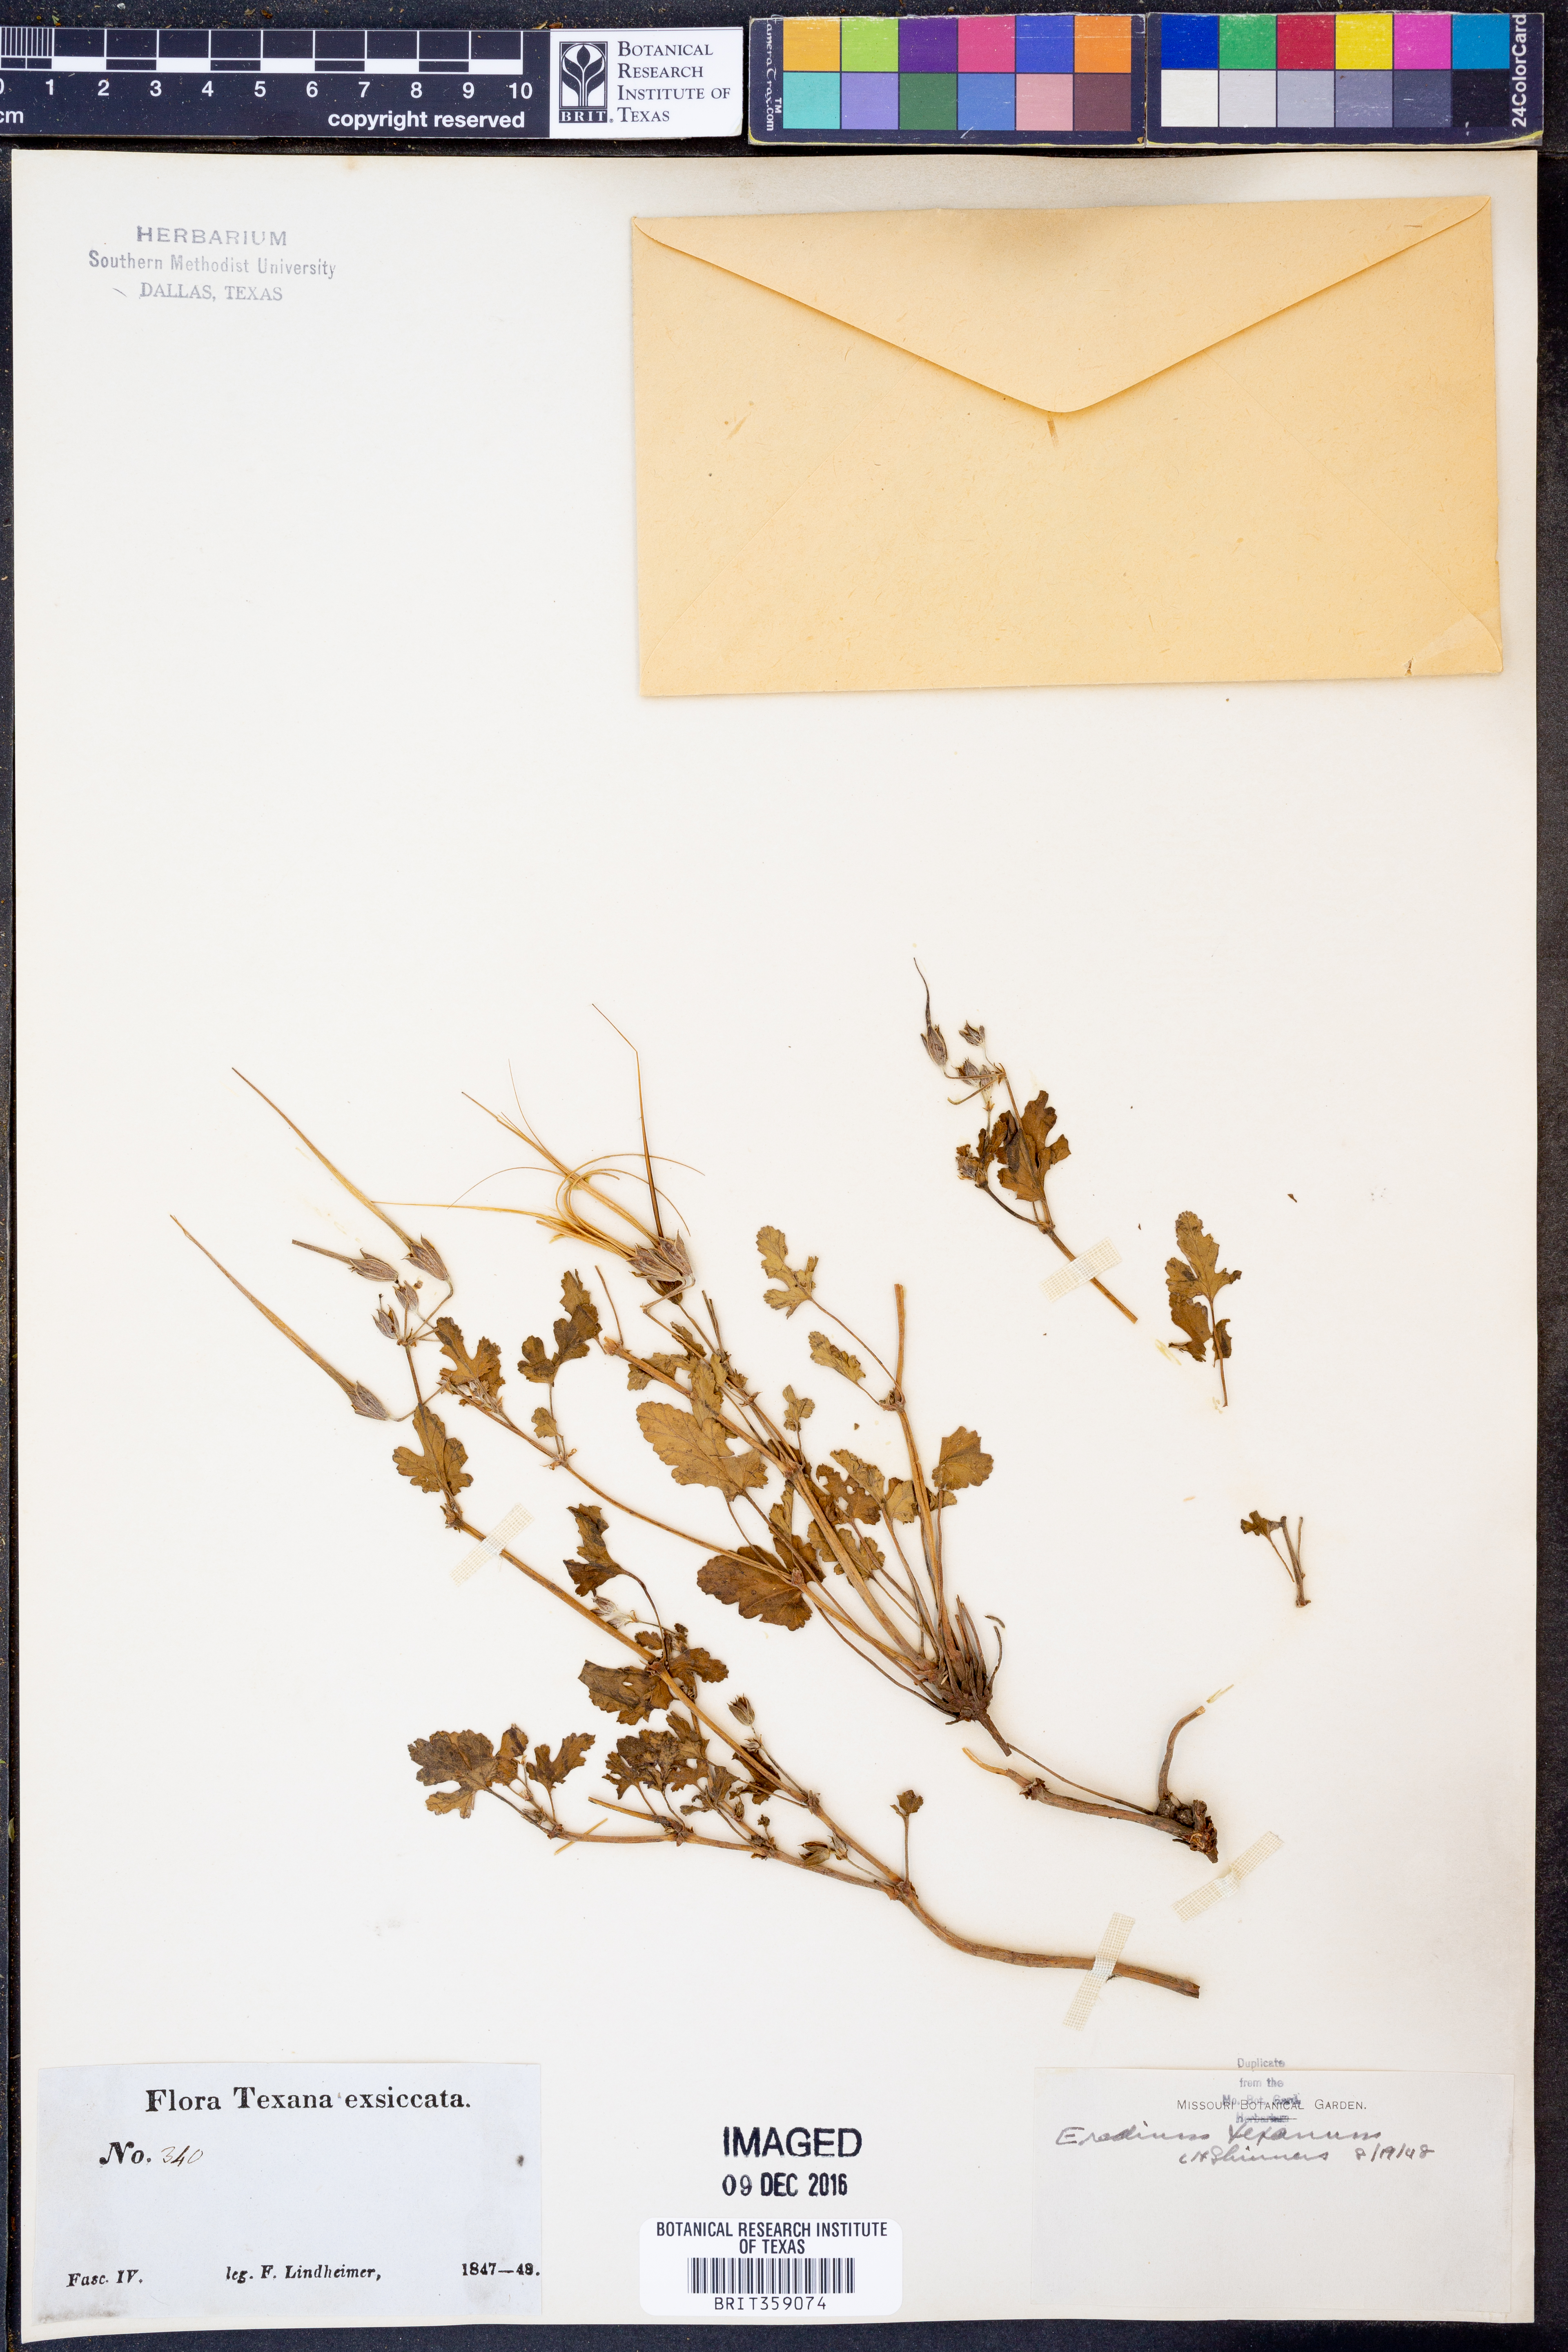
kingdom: Plantae
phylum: Tracheophyta
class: Magnoliopsida
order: Geraniales
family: Geraniaceae
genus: Erodium
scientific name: Erodium texanum
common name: Texas stork's-bill
